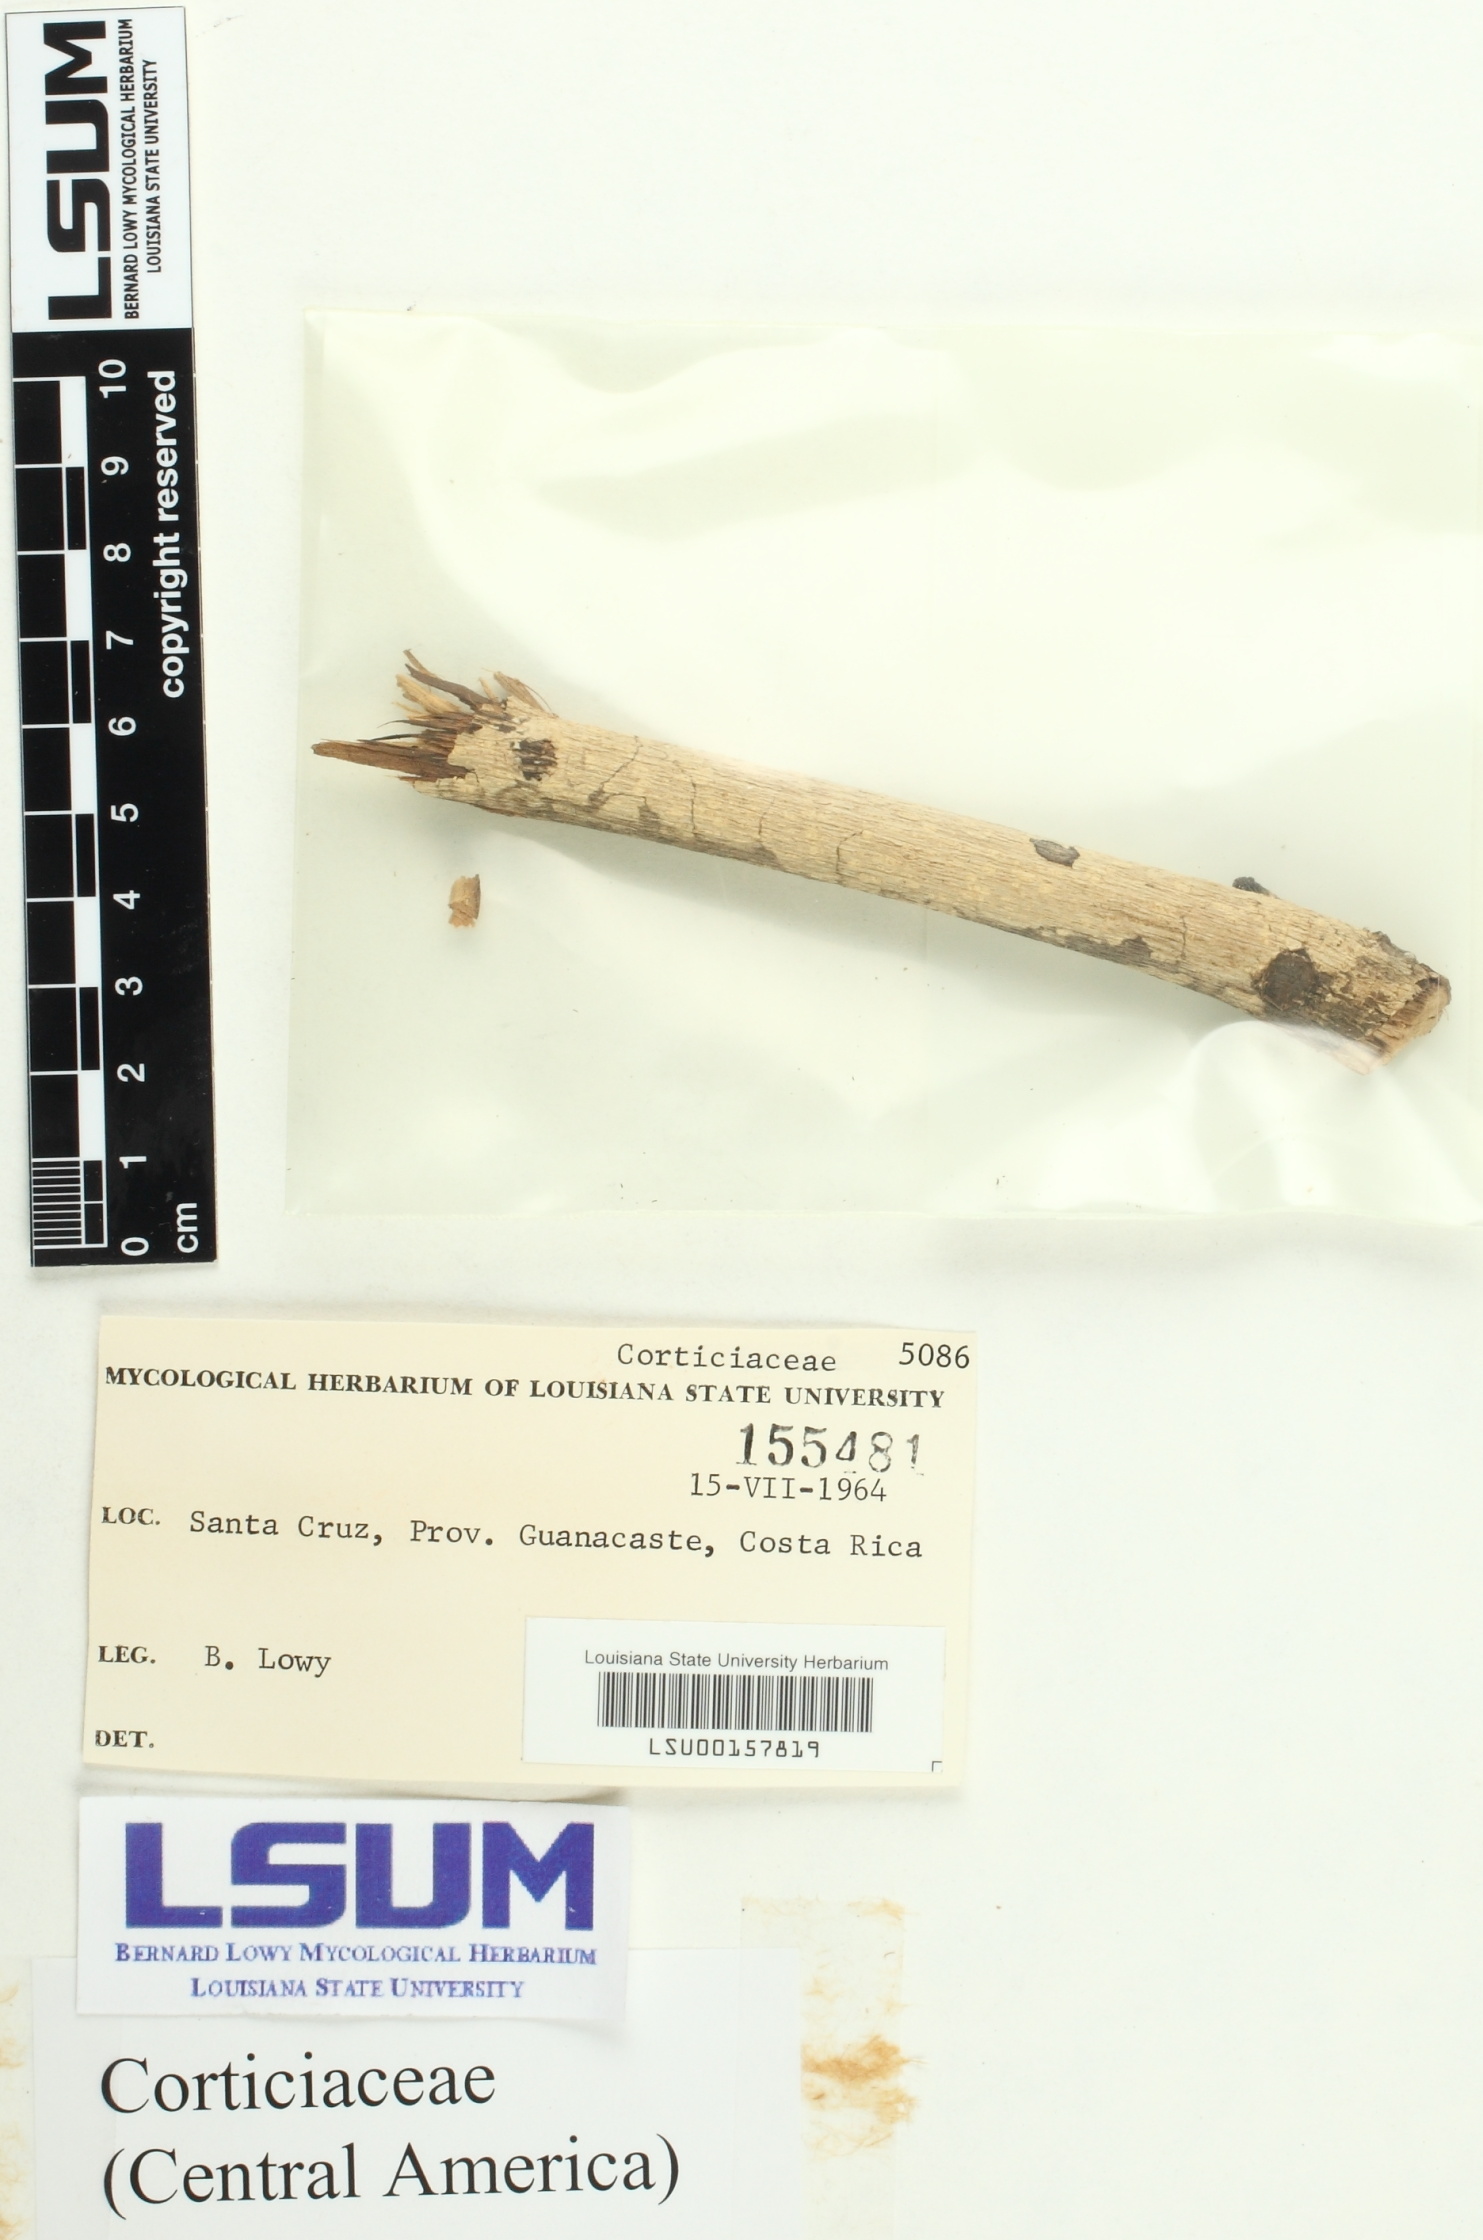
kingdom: Fungi
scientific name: Fungi
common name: Fungi
